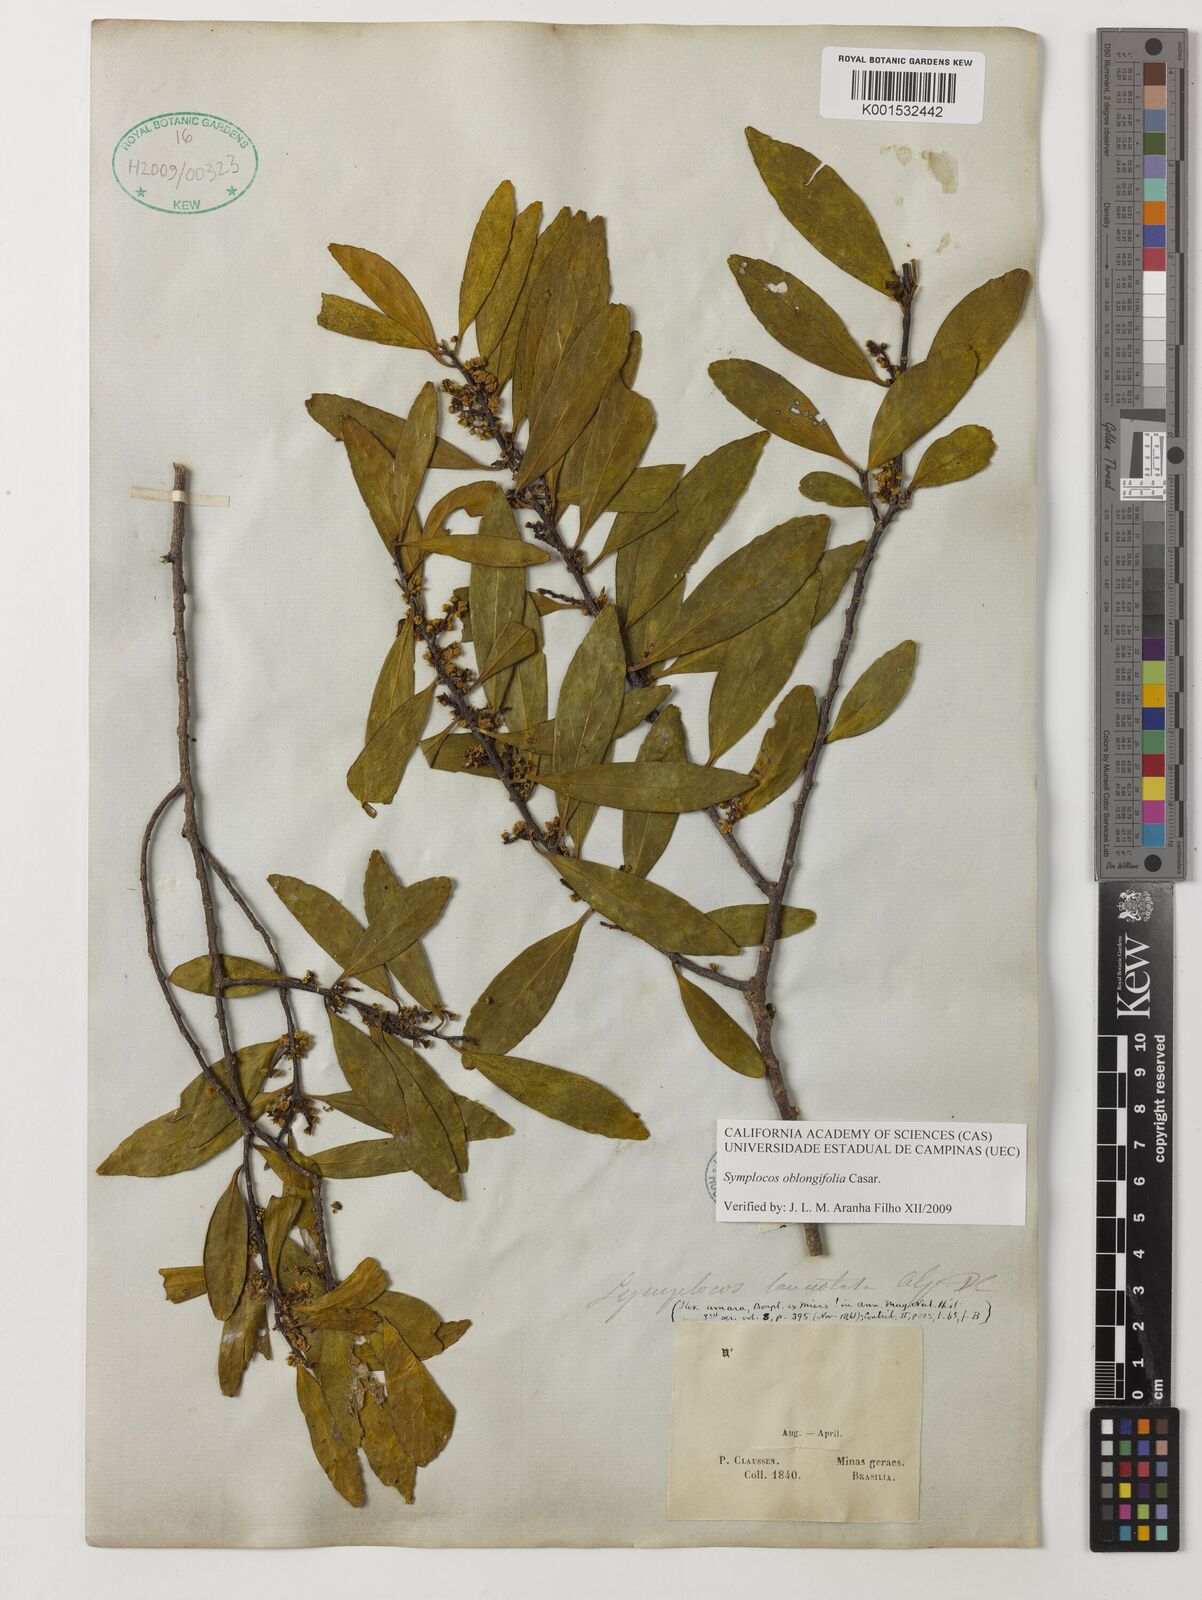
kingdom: Plantae
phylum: Tracheophyta
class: Magnoliopsida
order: Ericales
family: Symplocaceae
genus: Symplocos
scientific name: Symplocos arbutifolia
